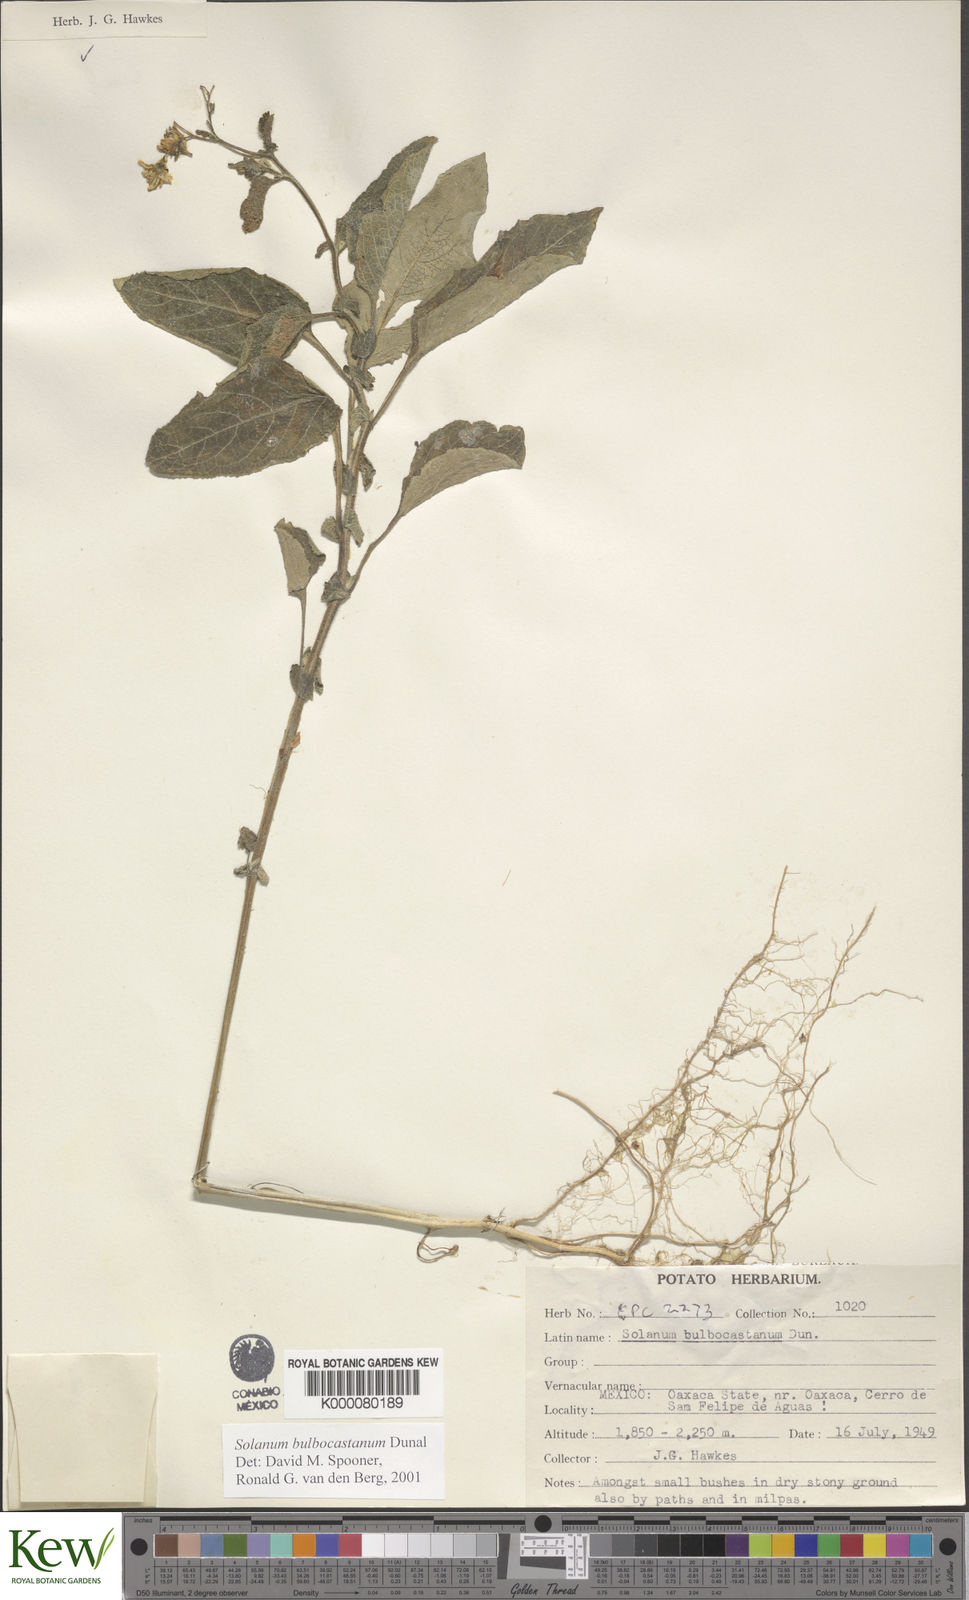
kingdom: Plantae
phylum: Tracheophyta
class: Magnoliopsida
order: Solanales
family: Solanaceae
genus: Solanum
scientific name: Solanum bulbocastanum
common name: Ornamental nightshade
